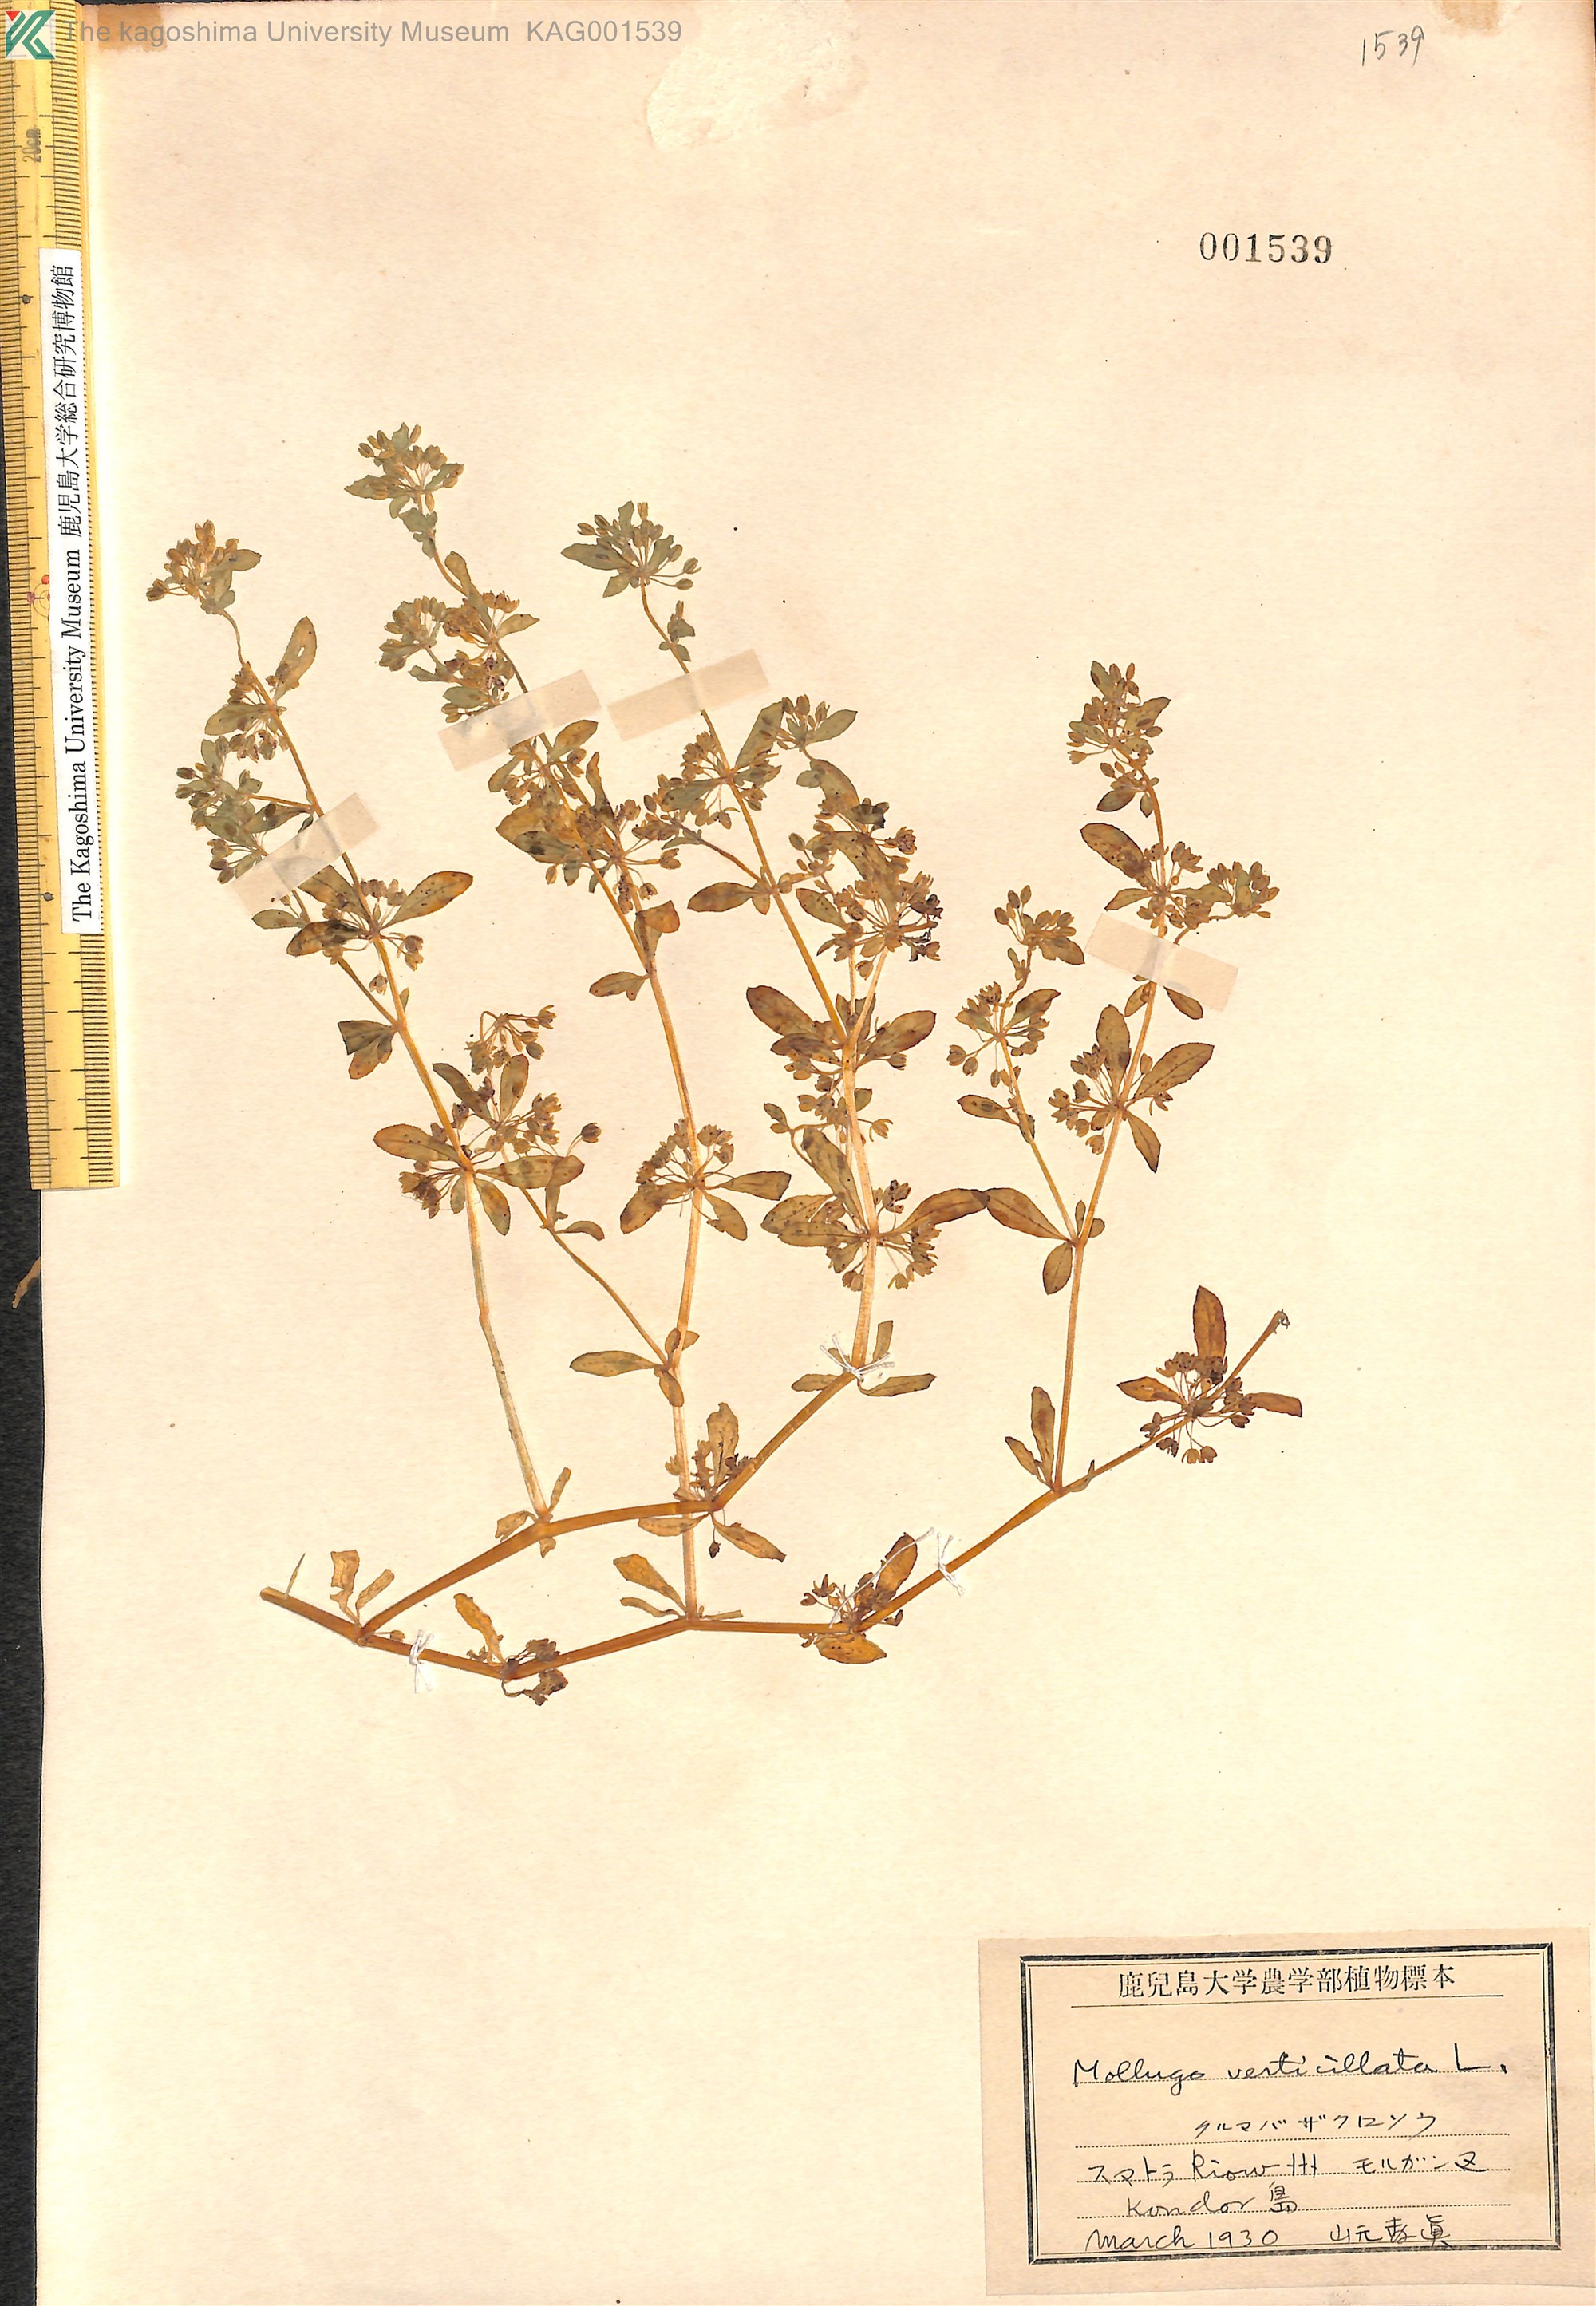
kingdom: Plantae
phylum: Tracheophyta
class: Magnoliopsida
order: Caryophyllales
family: Molluginaceae
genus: Mollugo
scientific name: Mollugo verticillata
